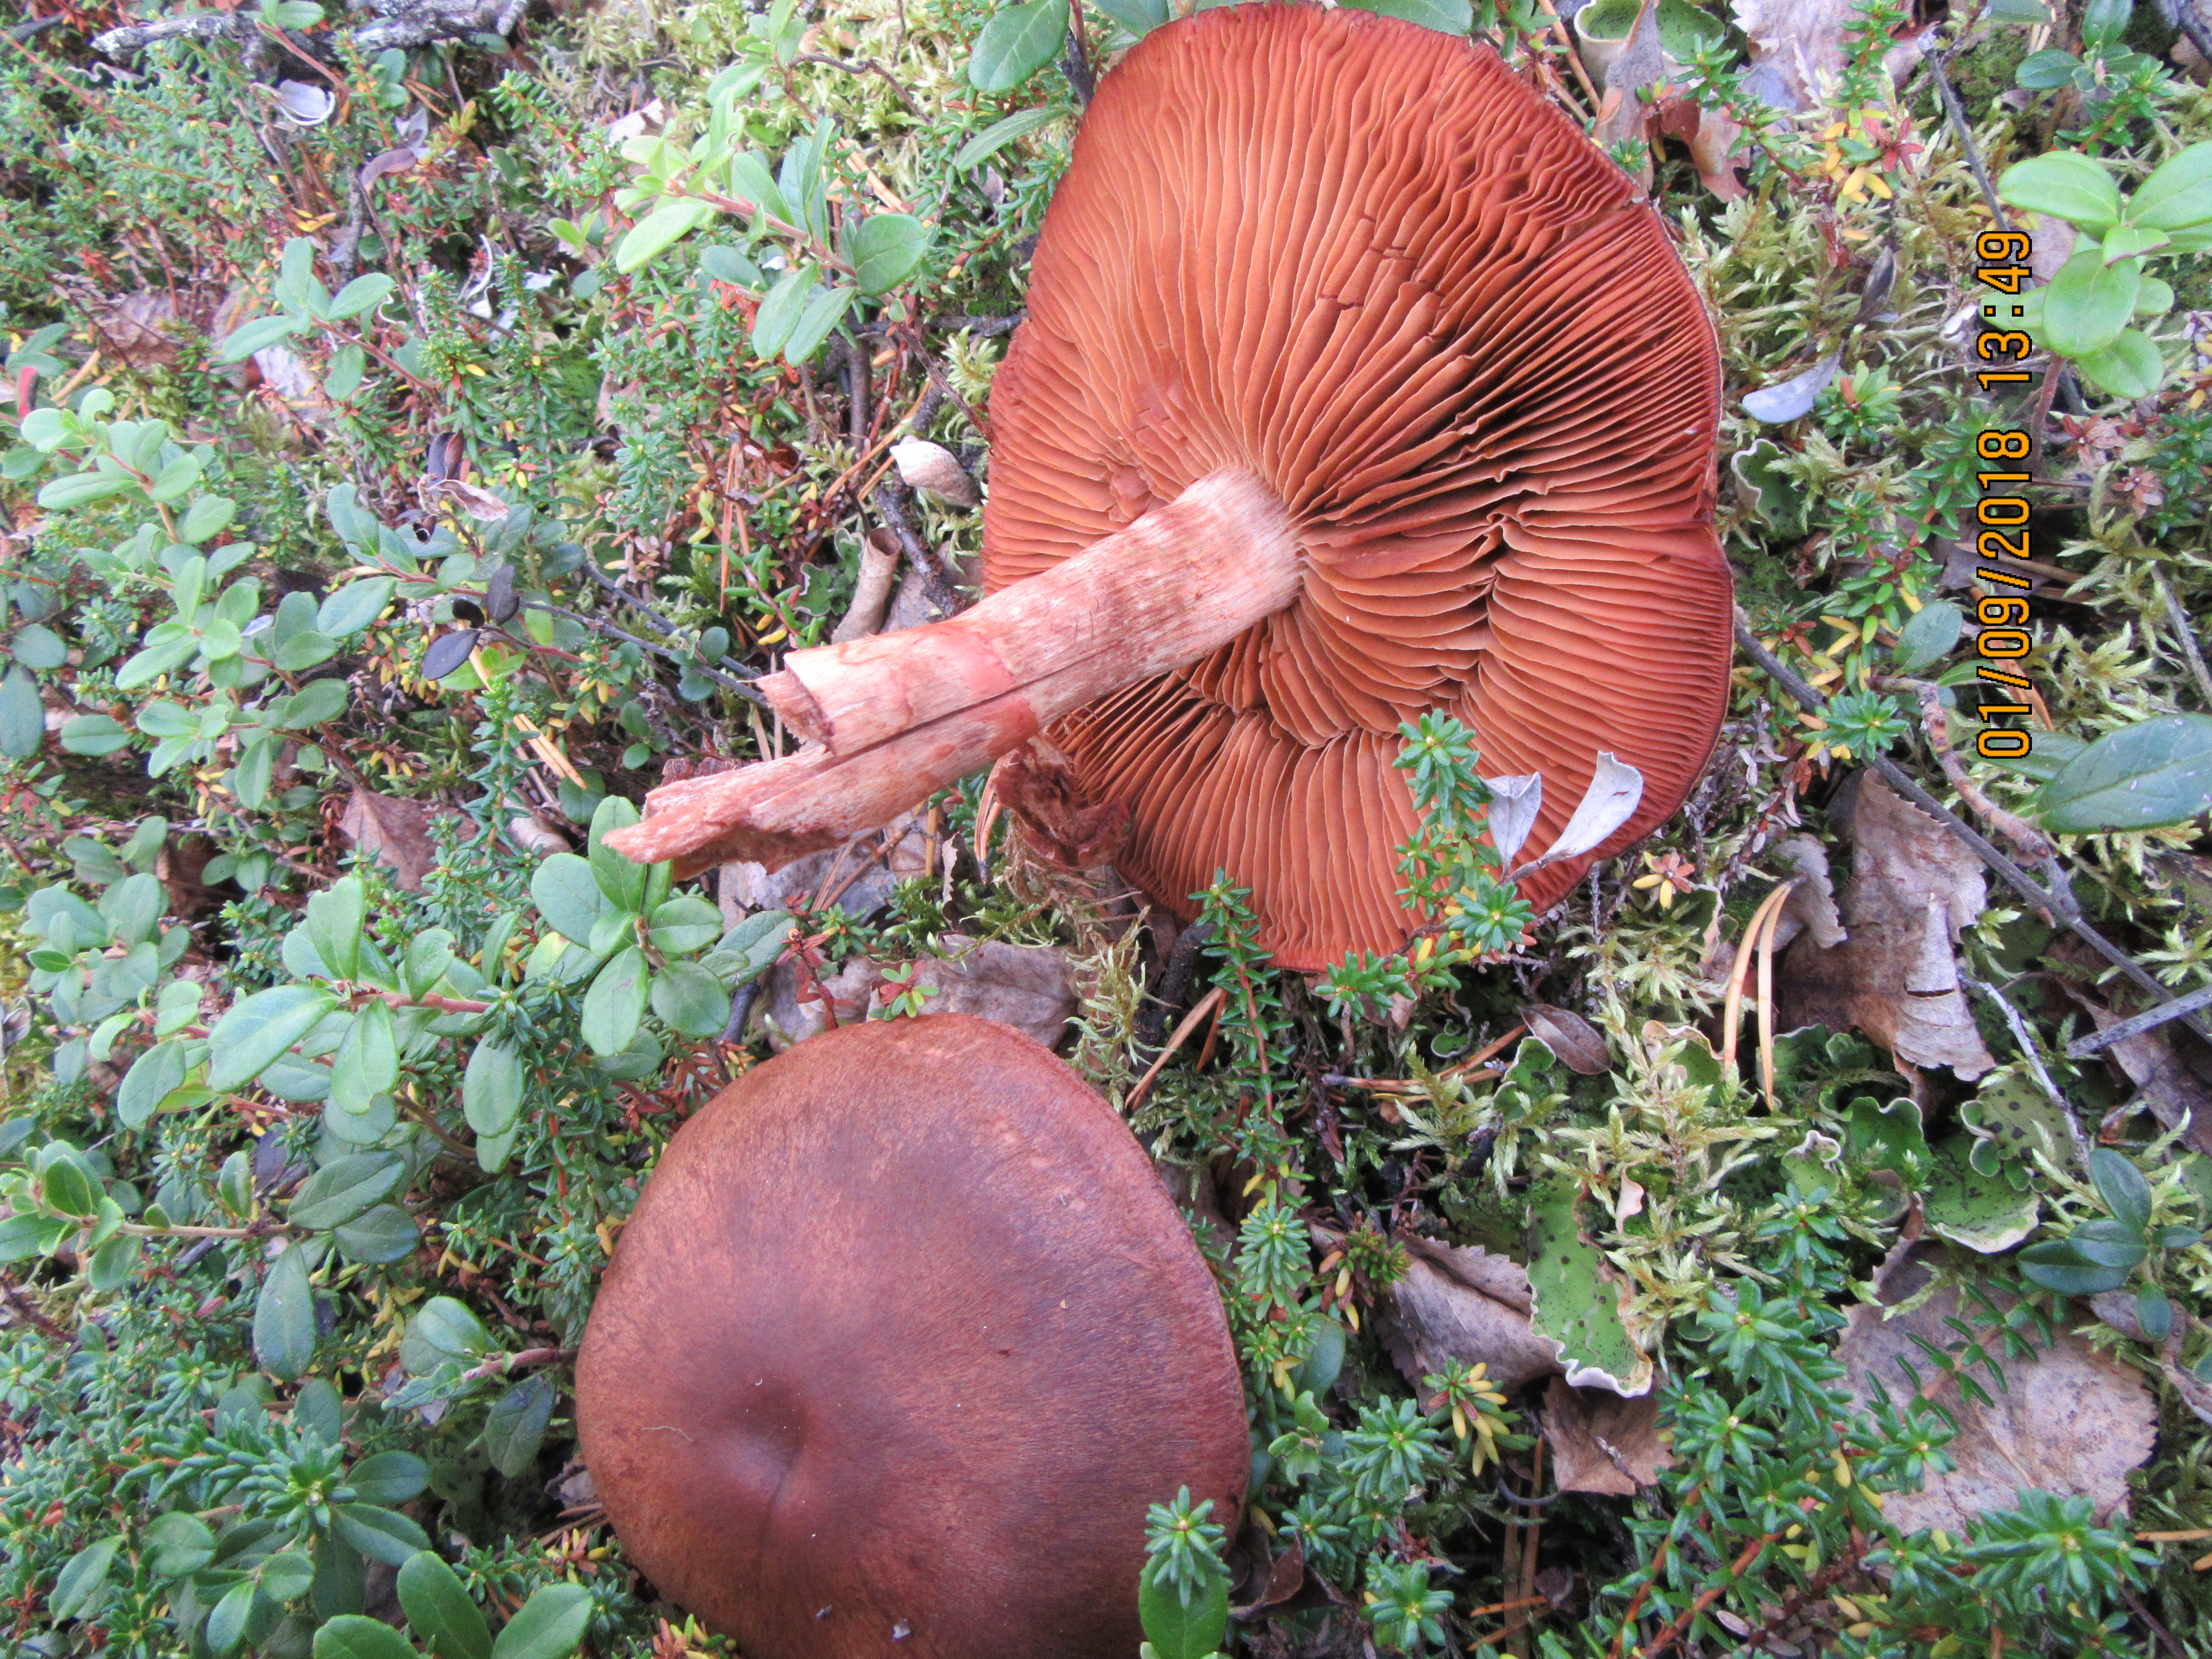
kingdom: Fungi
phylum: Basidiomycota
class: Agaricomycetes
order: Agaricales
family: Cortinariaceae
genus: Cortinarius
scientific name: Cortinarius armillatus
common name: Red banded webcap
